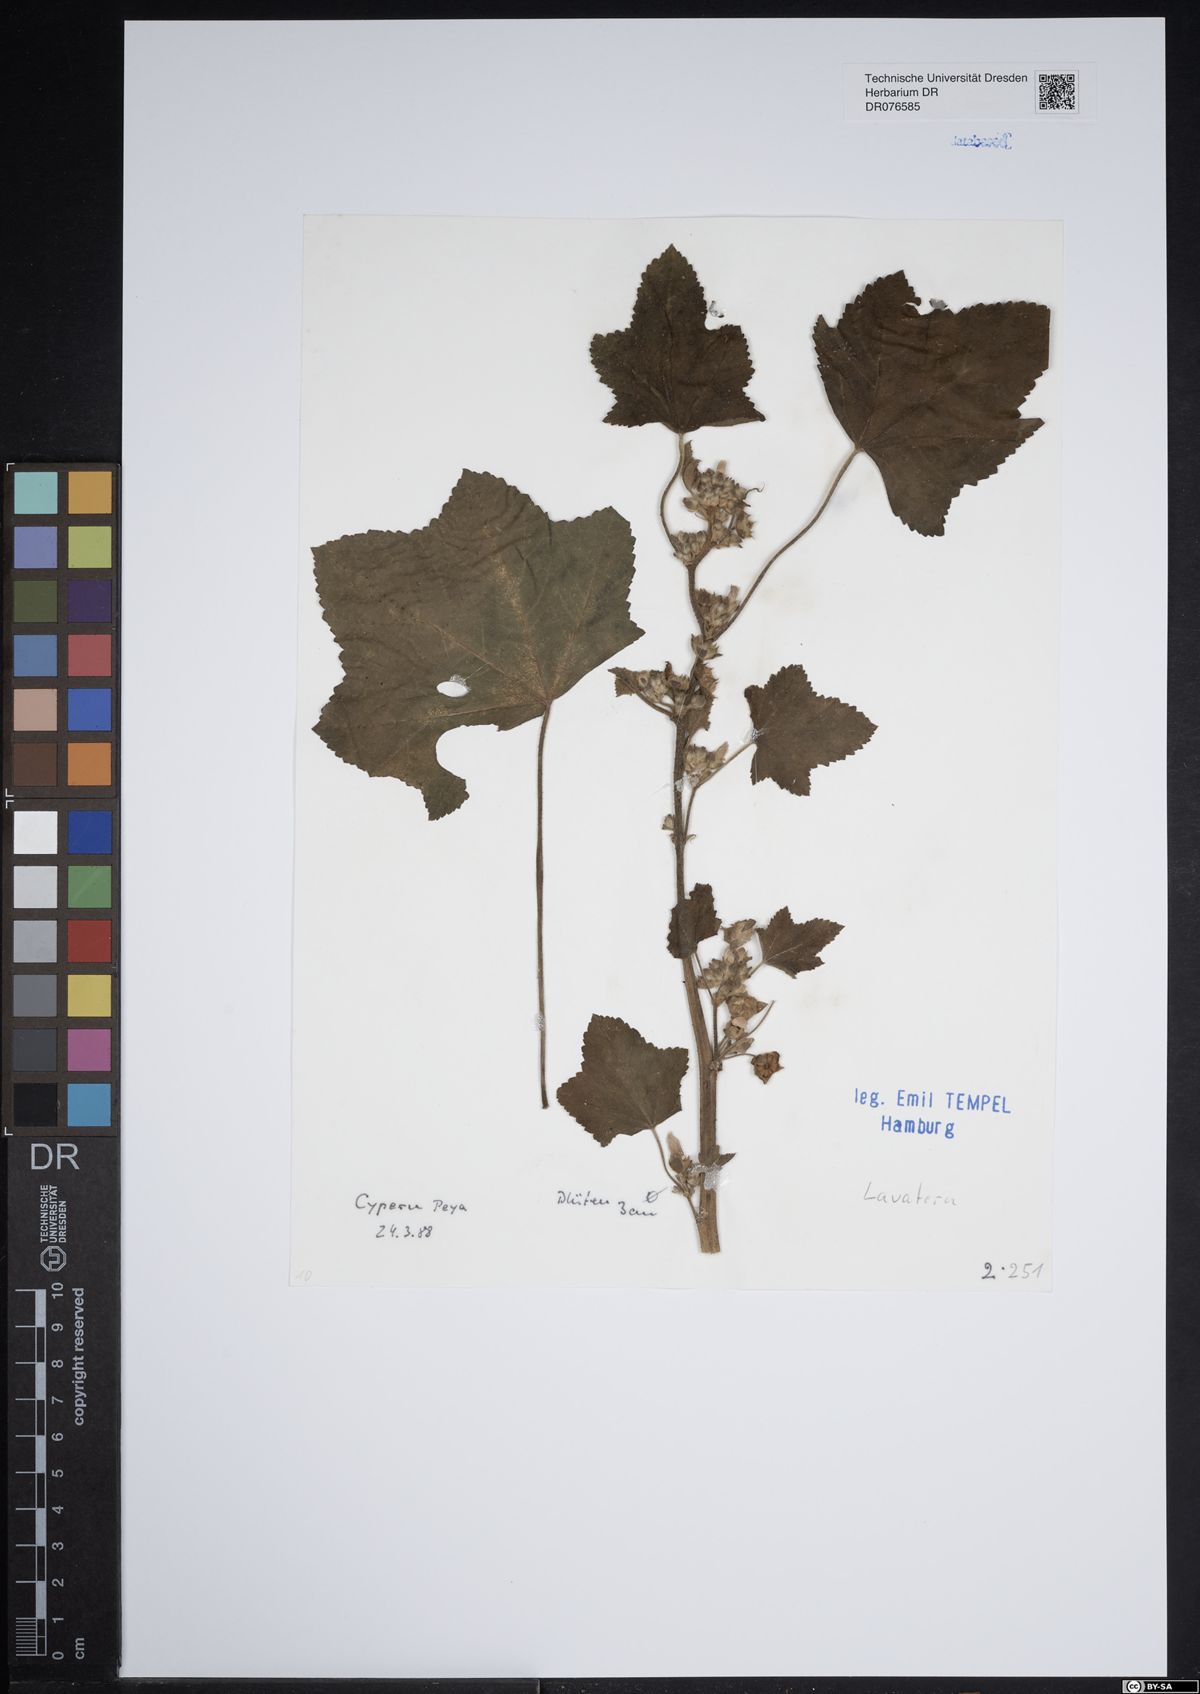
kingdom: Plantae
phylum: Tracheophyta
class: Magnoliopsida
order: Malvales
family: Malvaceae
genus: Malva
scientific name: Malva
